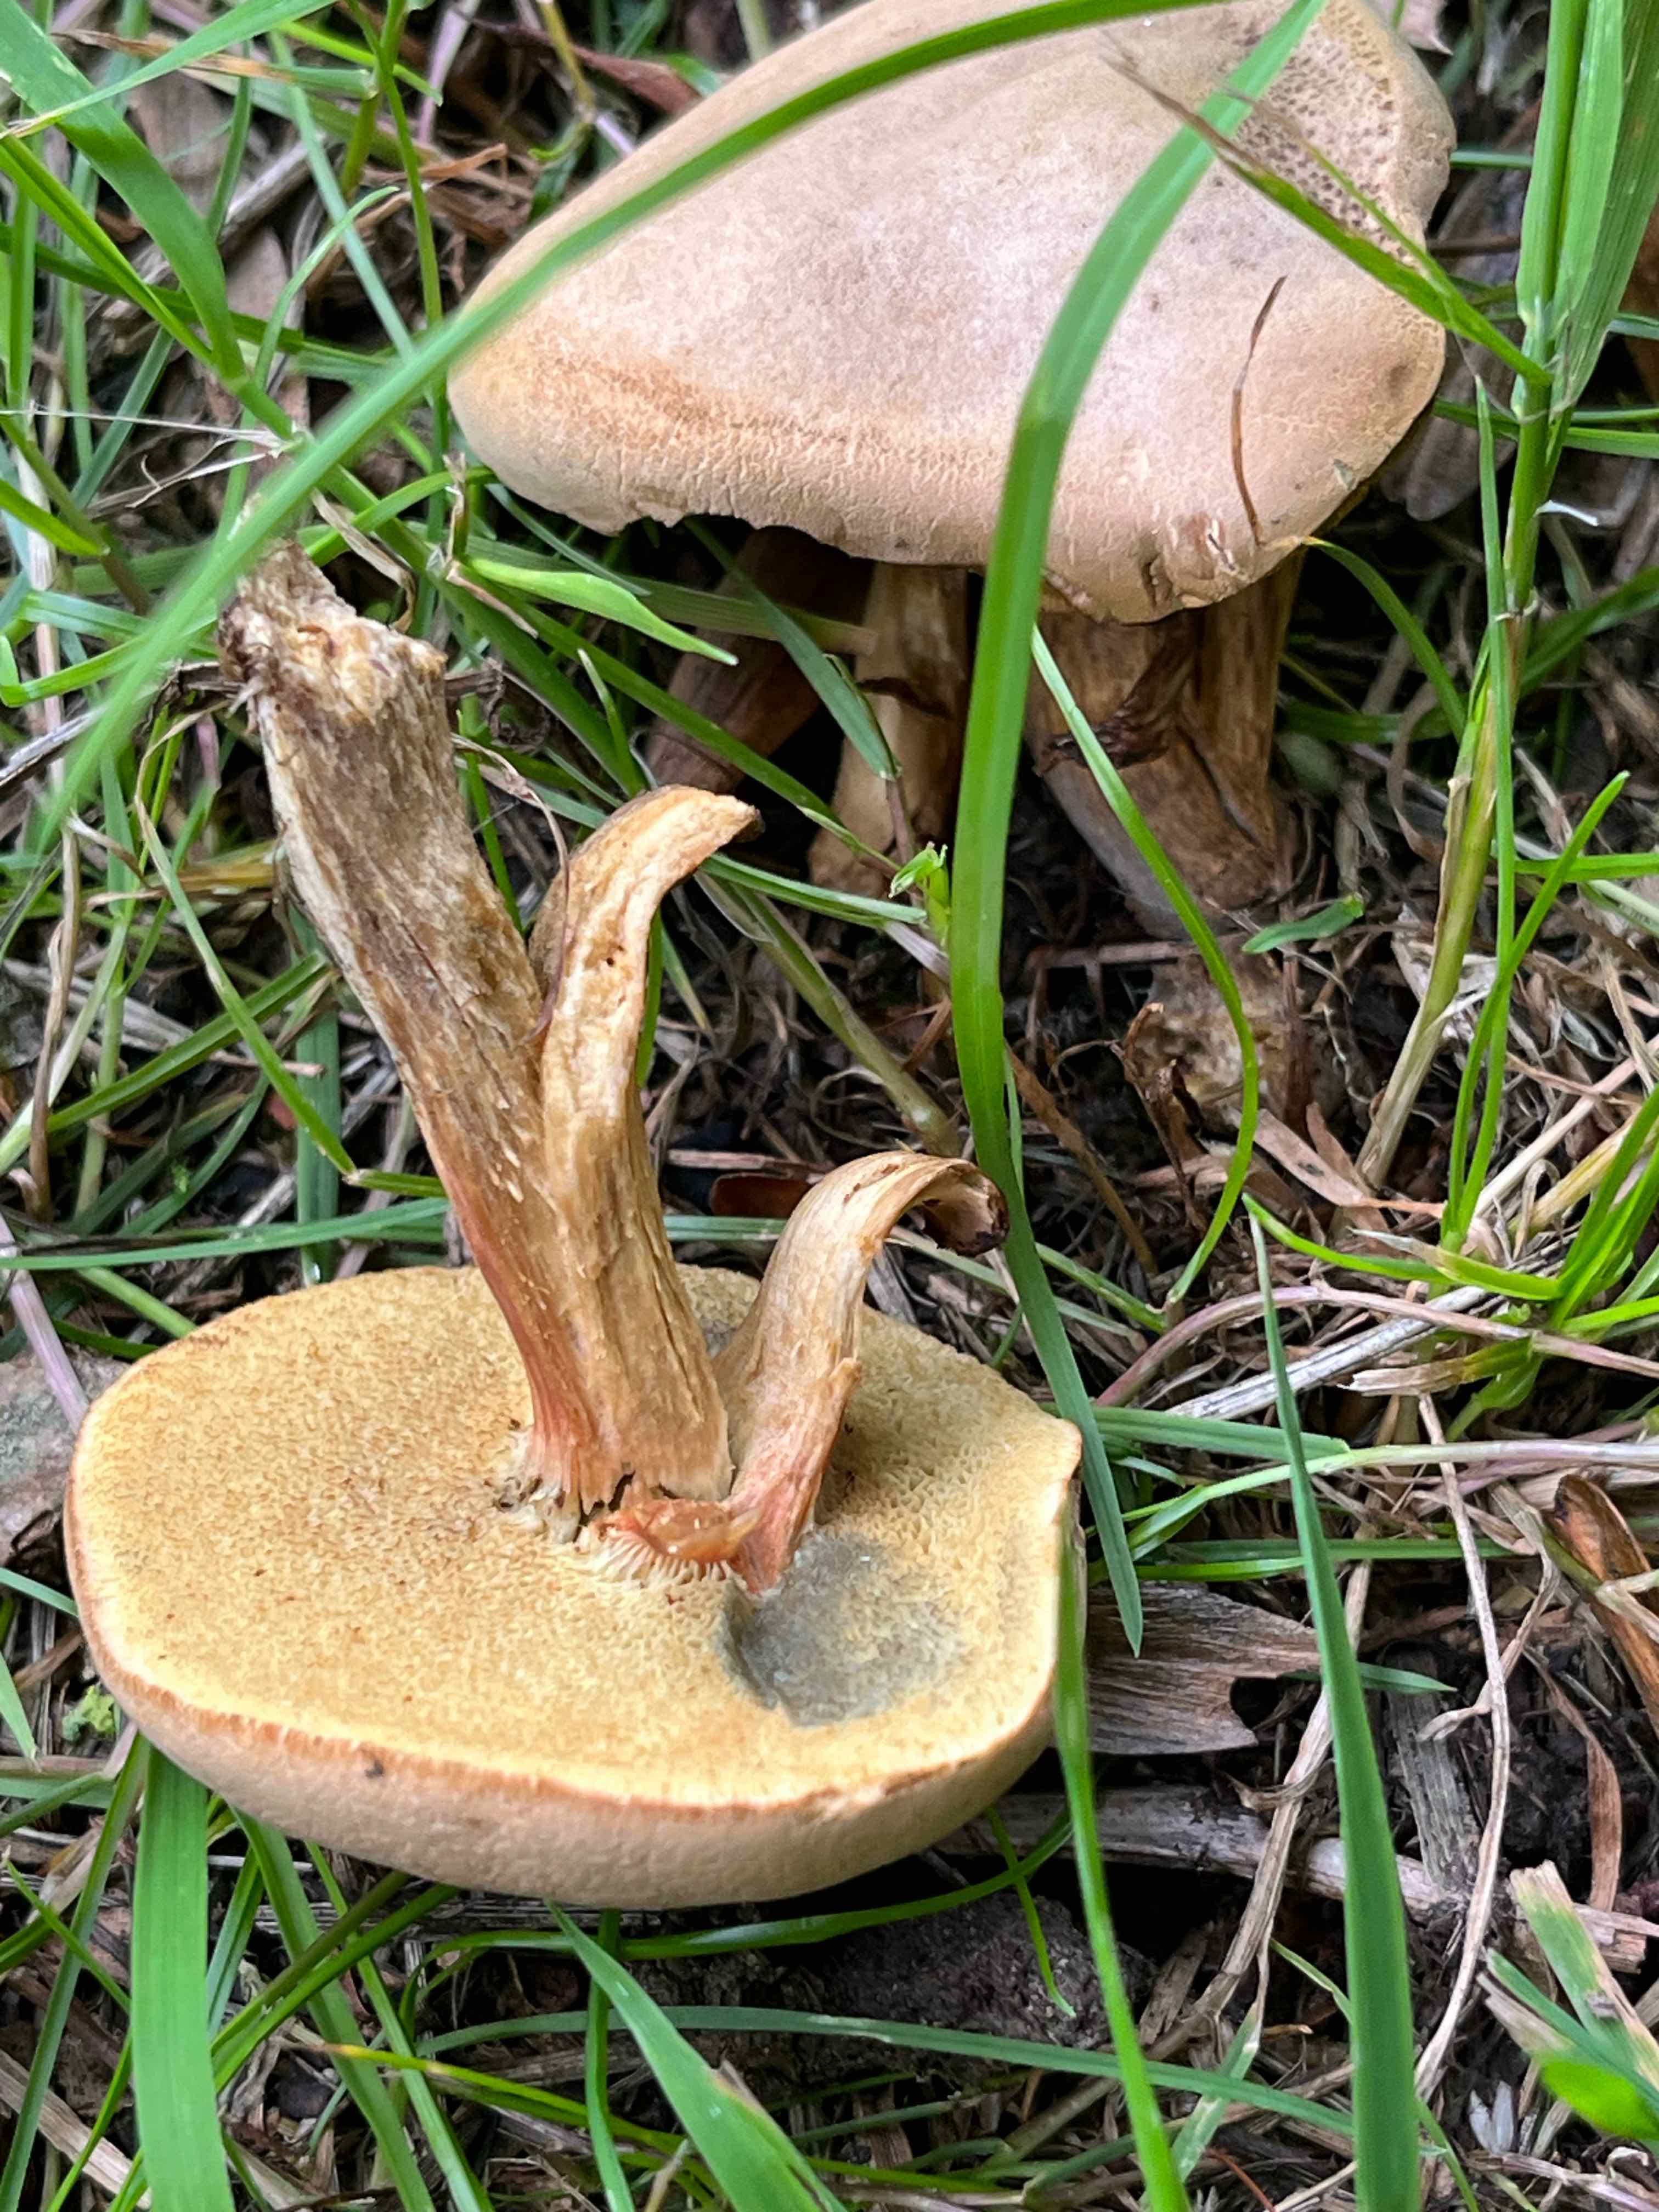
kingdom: Fungi
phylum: Basidiomycota
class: Agaricomycetes
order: Boletales
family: Boletaceae
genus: Hortiboletus
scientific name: Hortiboletus bubalinus
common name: aurora-rørhat
